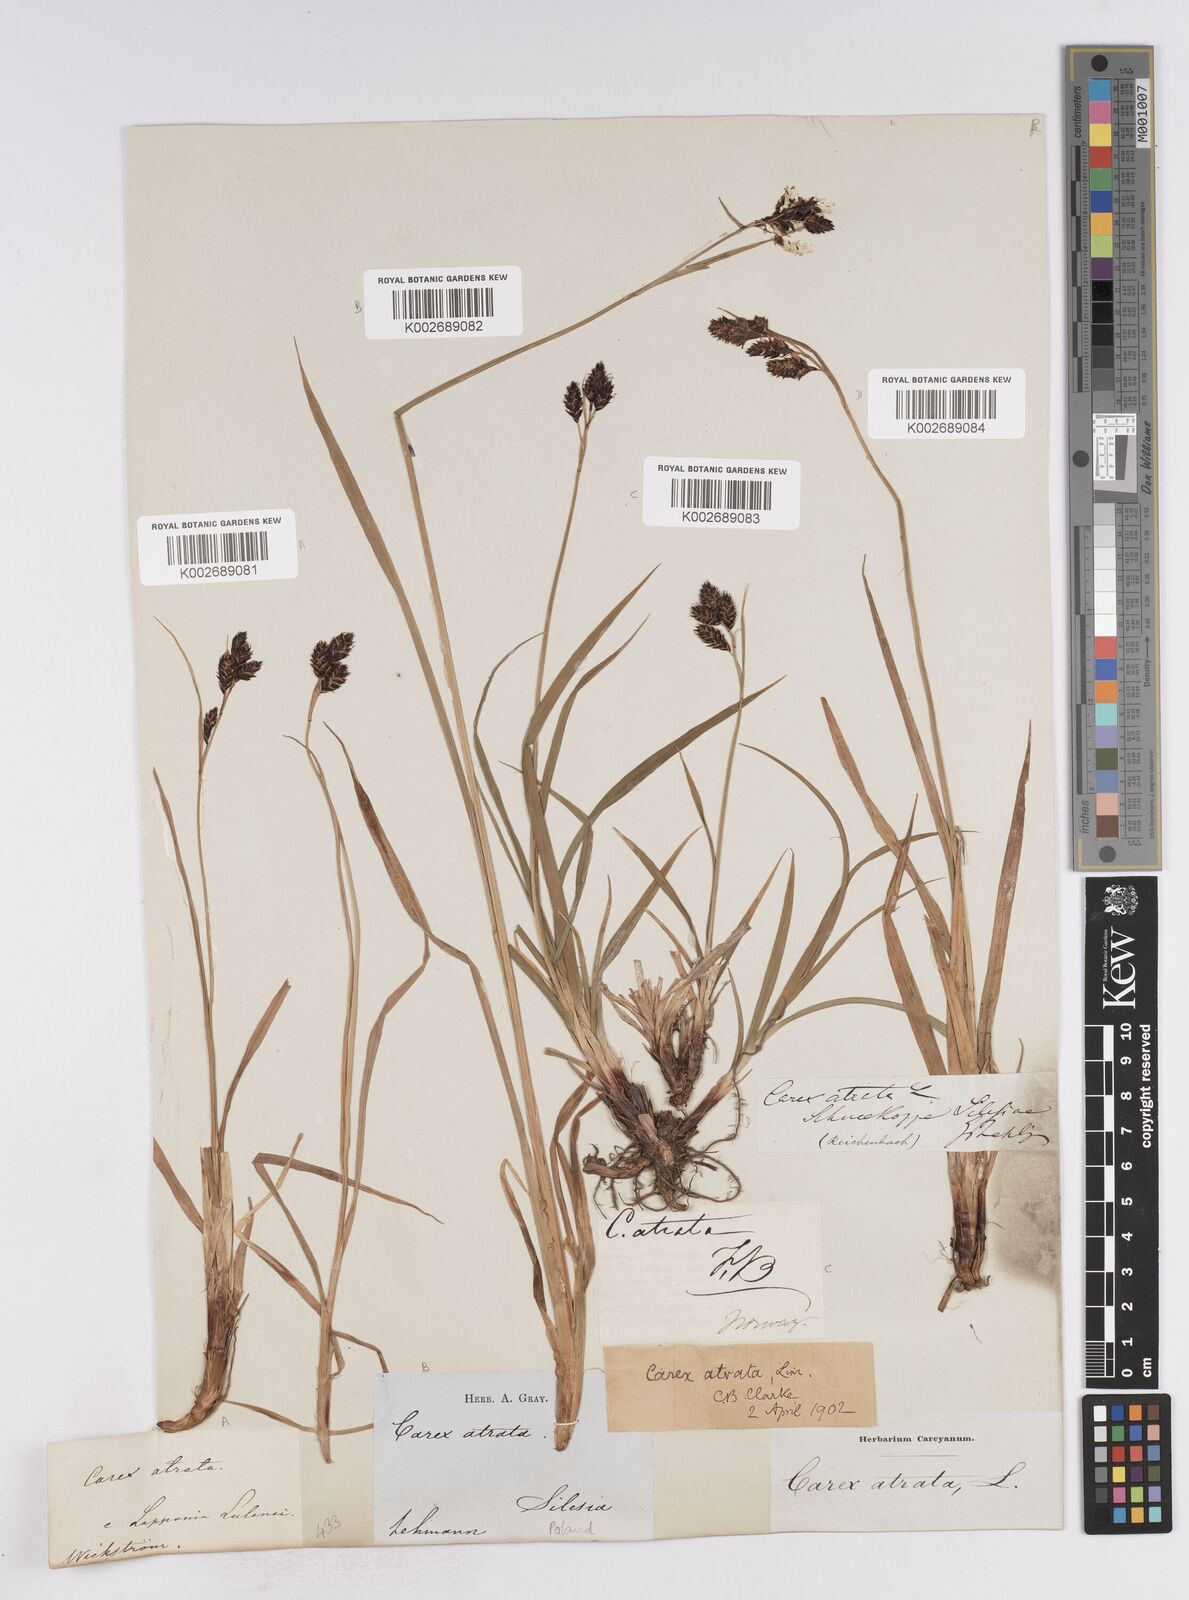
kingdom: Plantae
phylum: Tracheophyta
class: Liliopsida
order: Poales
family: Cyperaceae
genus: Carex
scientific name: Carex atrata
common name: Black alpine sedge
